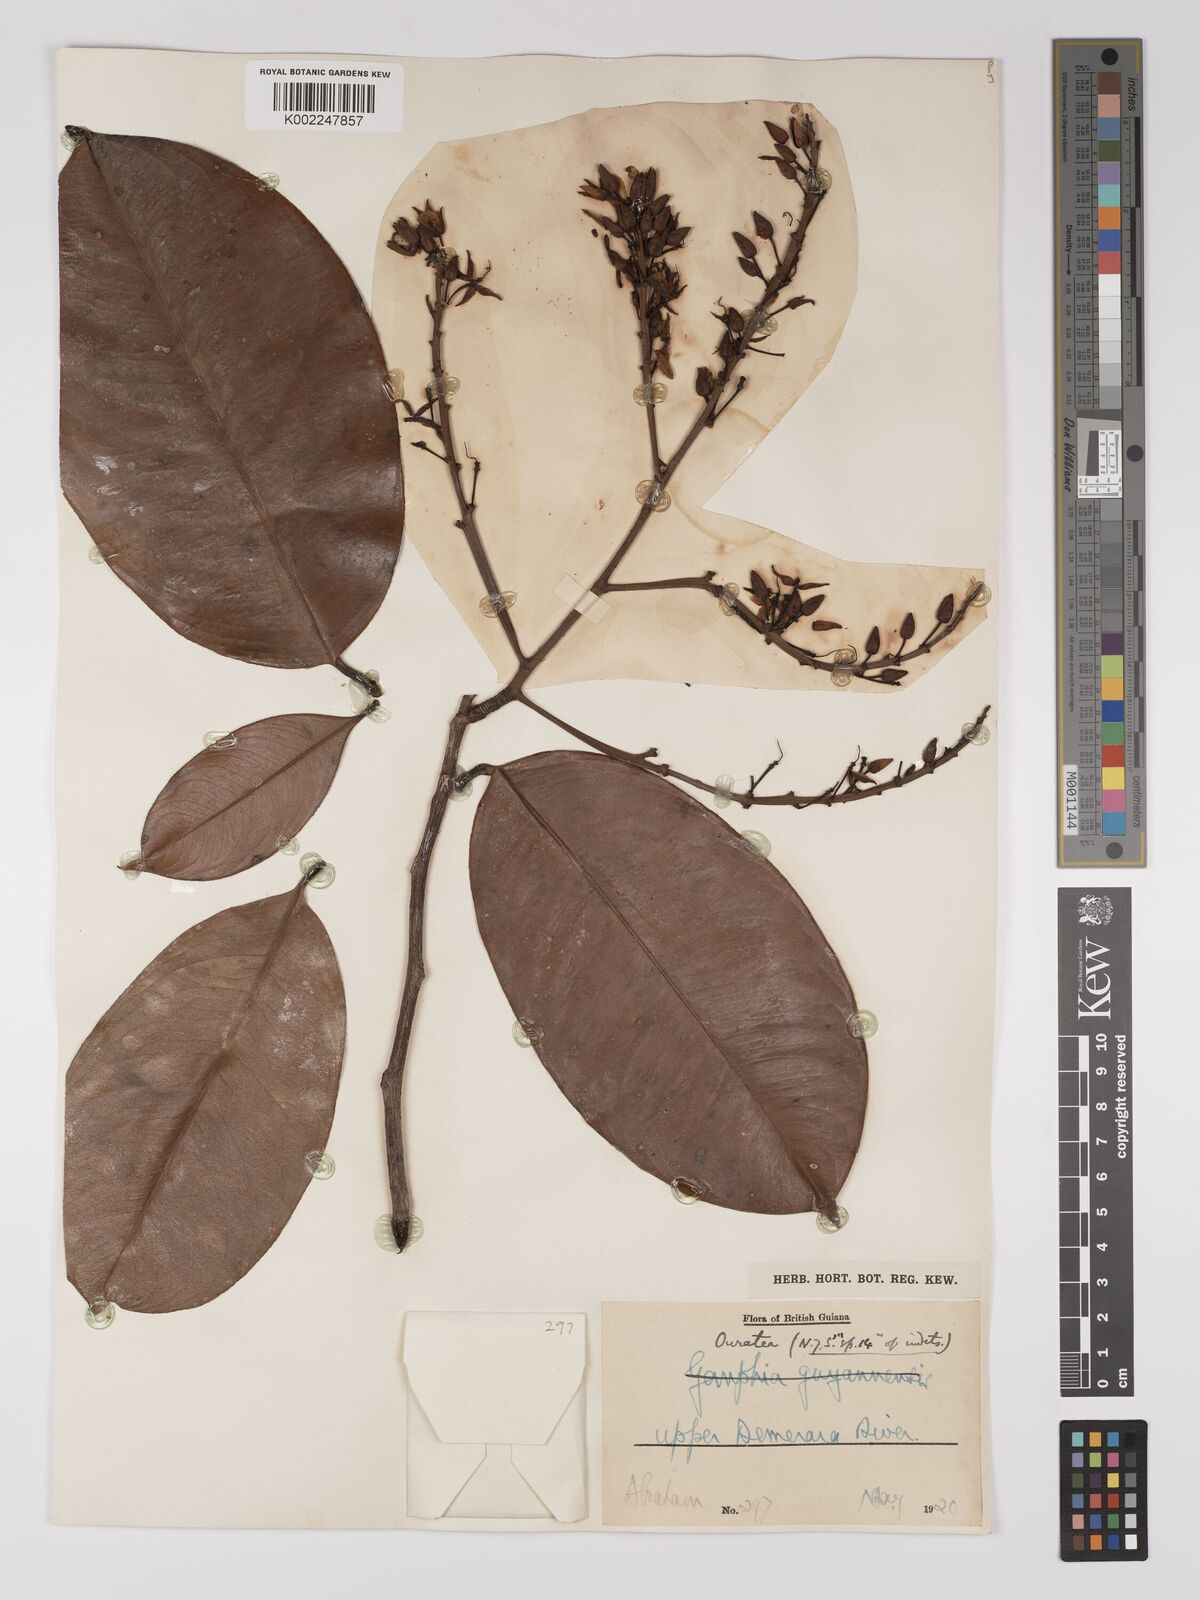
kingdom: Plantae
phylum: Tracheophyta
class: Magnoliopsida
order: Malpighiales
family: Ochnaceae
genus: Ouratea
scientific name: Ouratea
